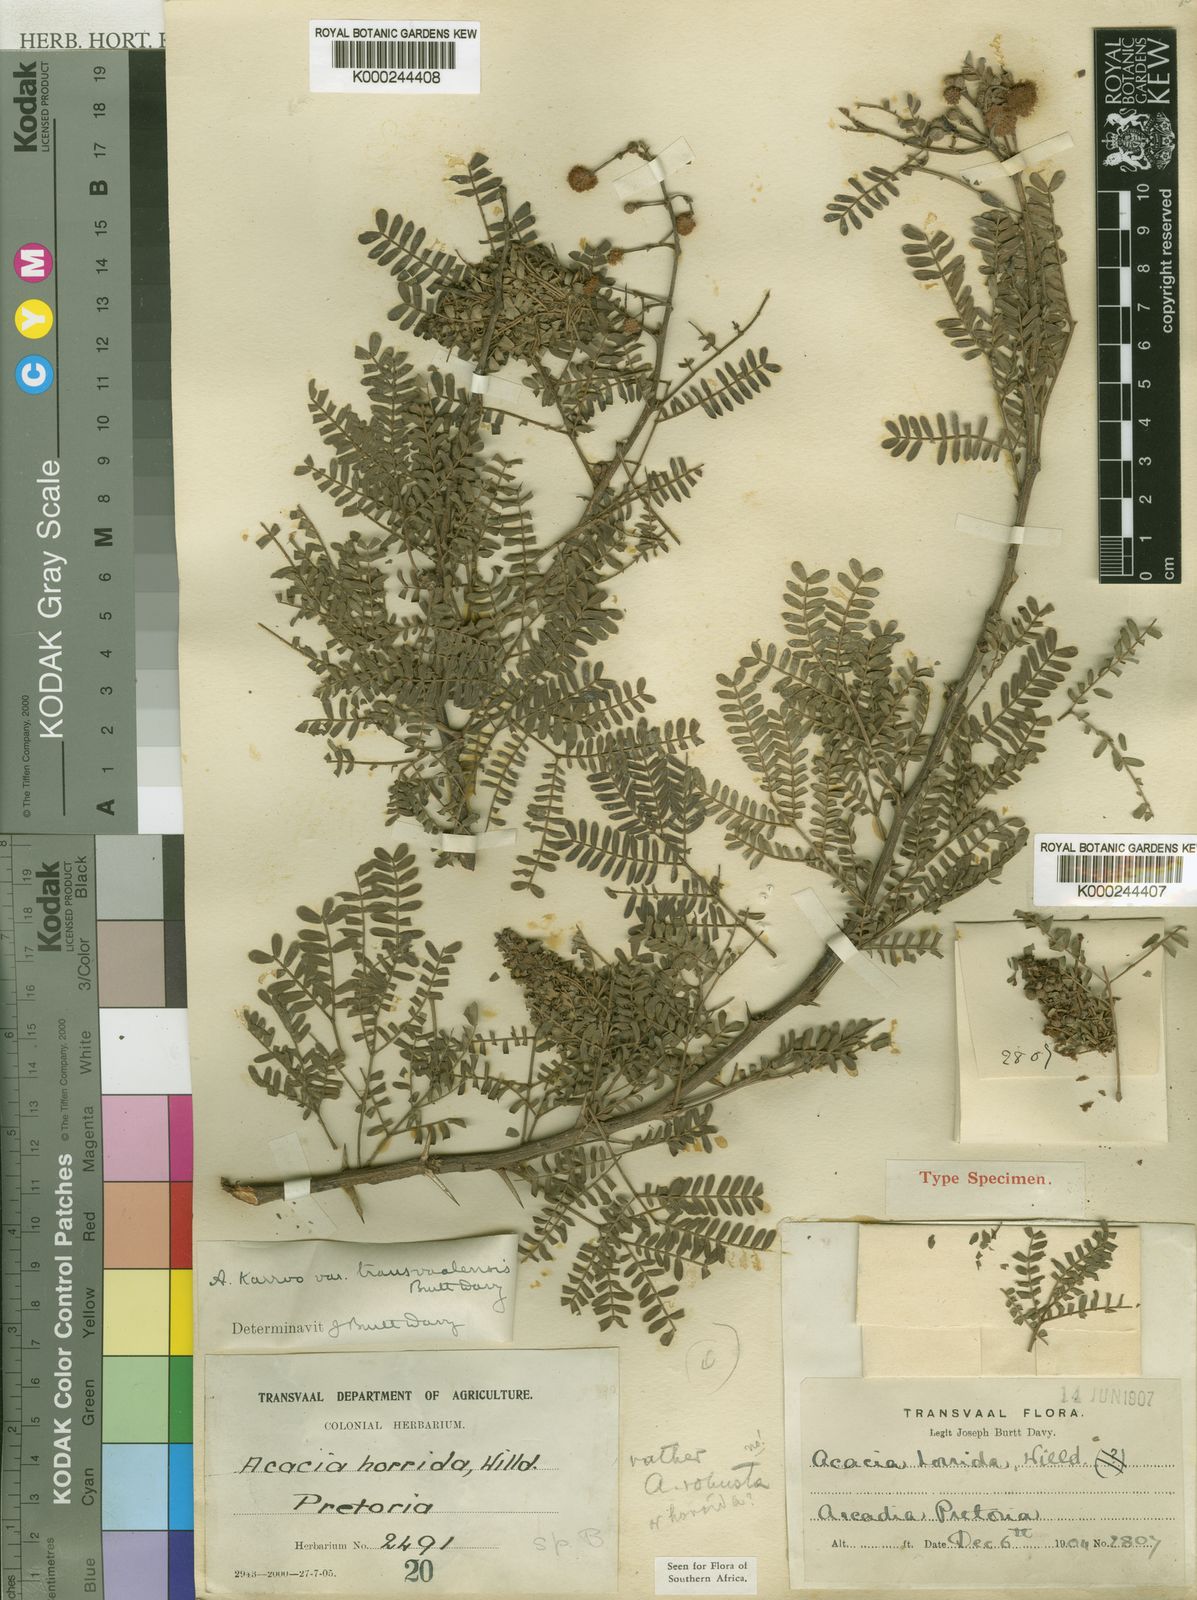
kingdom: Plantae
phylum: Tracheophyta
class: Magnoliopsida
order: Fabales
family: Fabaceae
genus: Vachellia
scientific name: Vachellia karroo
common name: Sweet thorn
